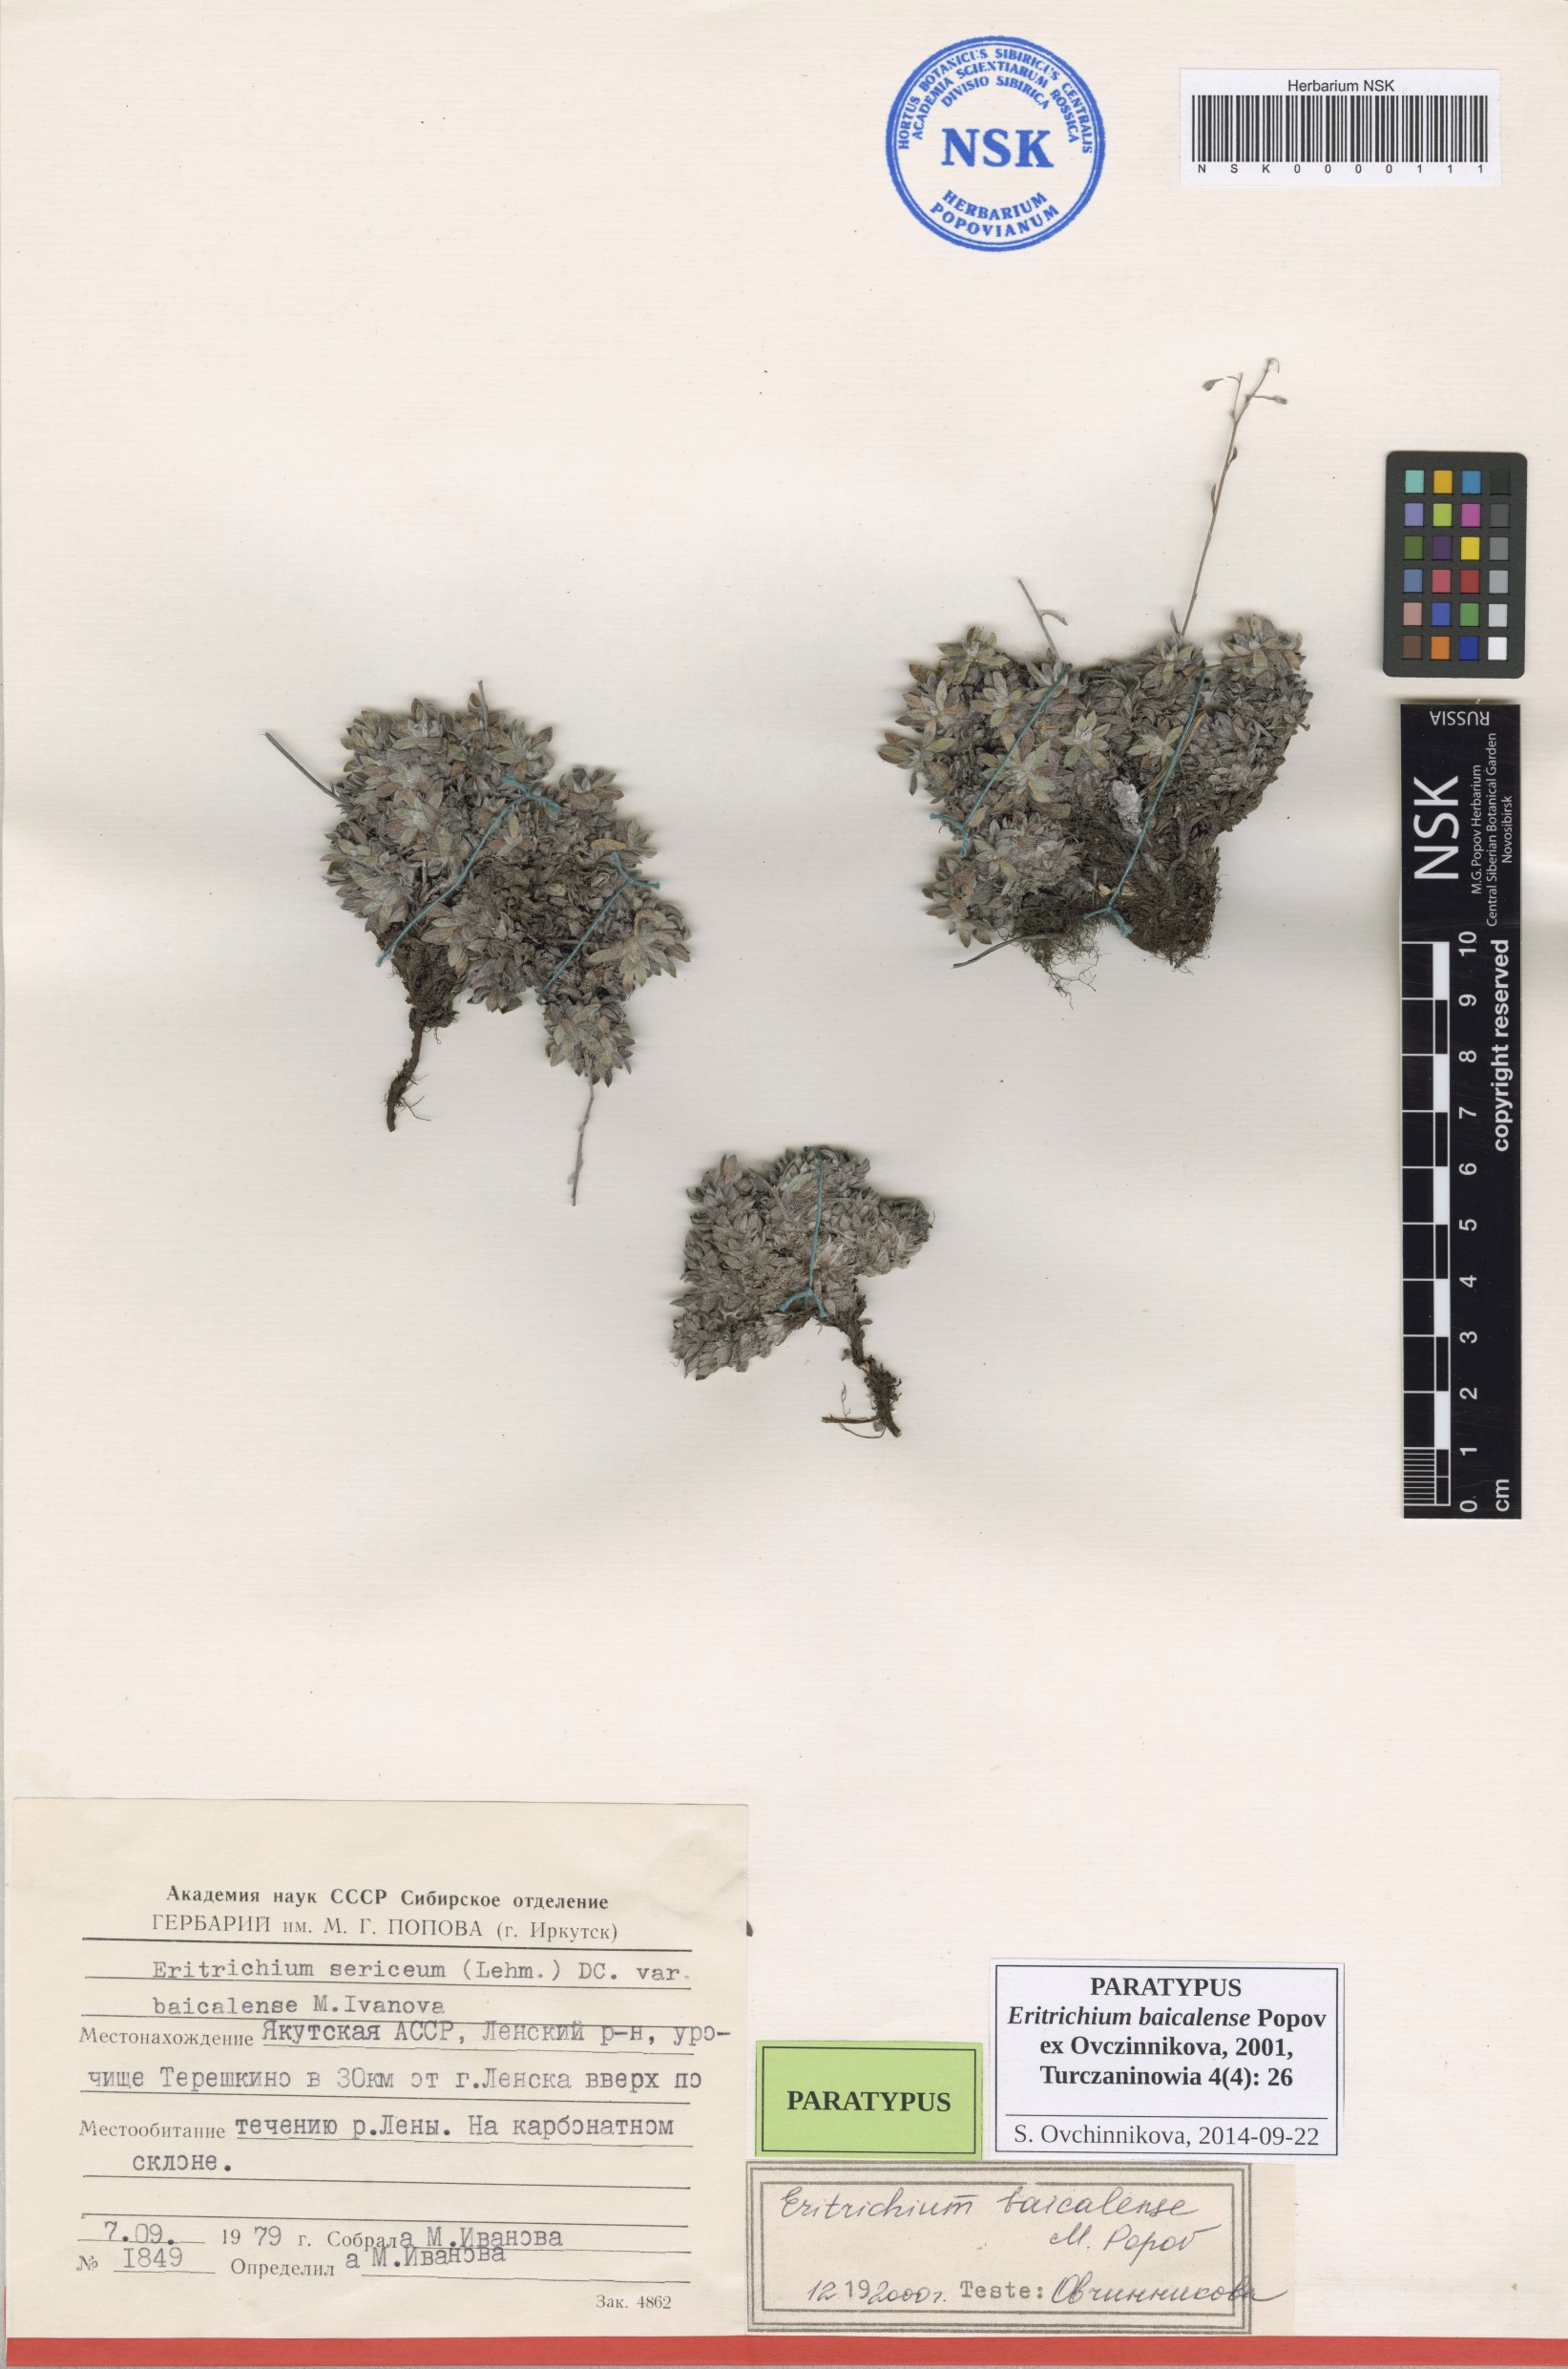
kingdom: Plantae
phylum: Tracheophyta
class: Magnoliopsida
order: Boraginales
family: Boraginaceae
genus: Eritrichium
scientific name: Eritrichium baicalense
